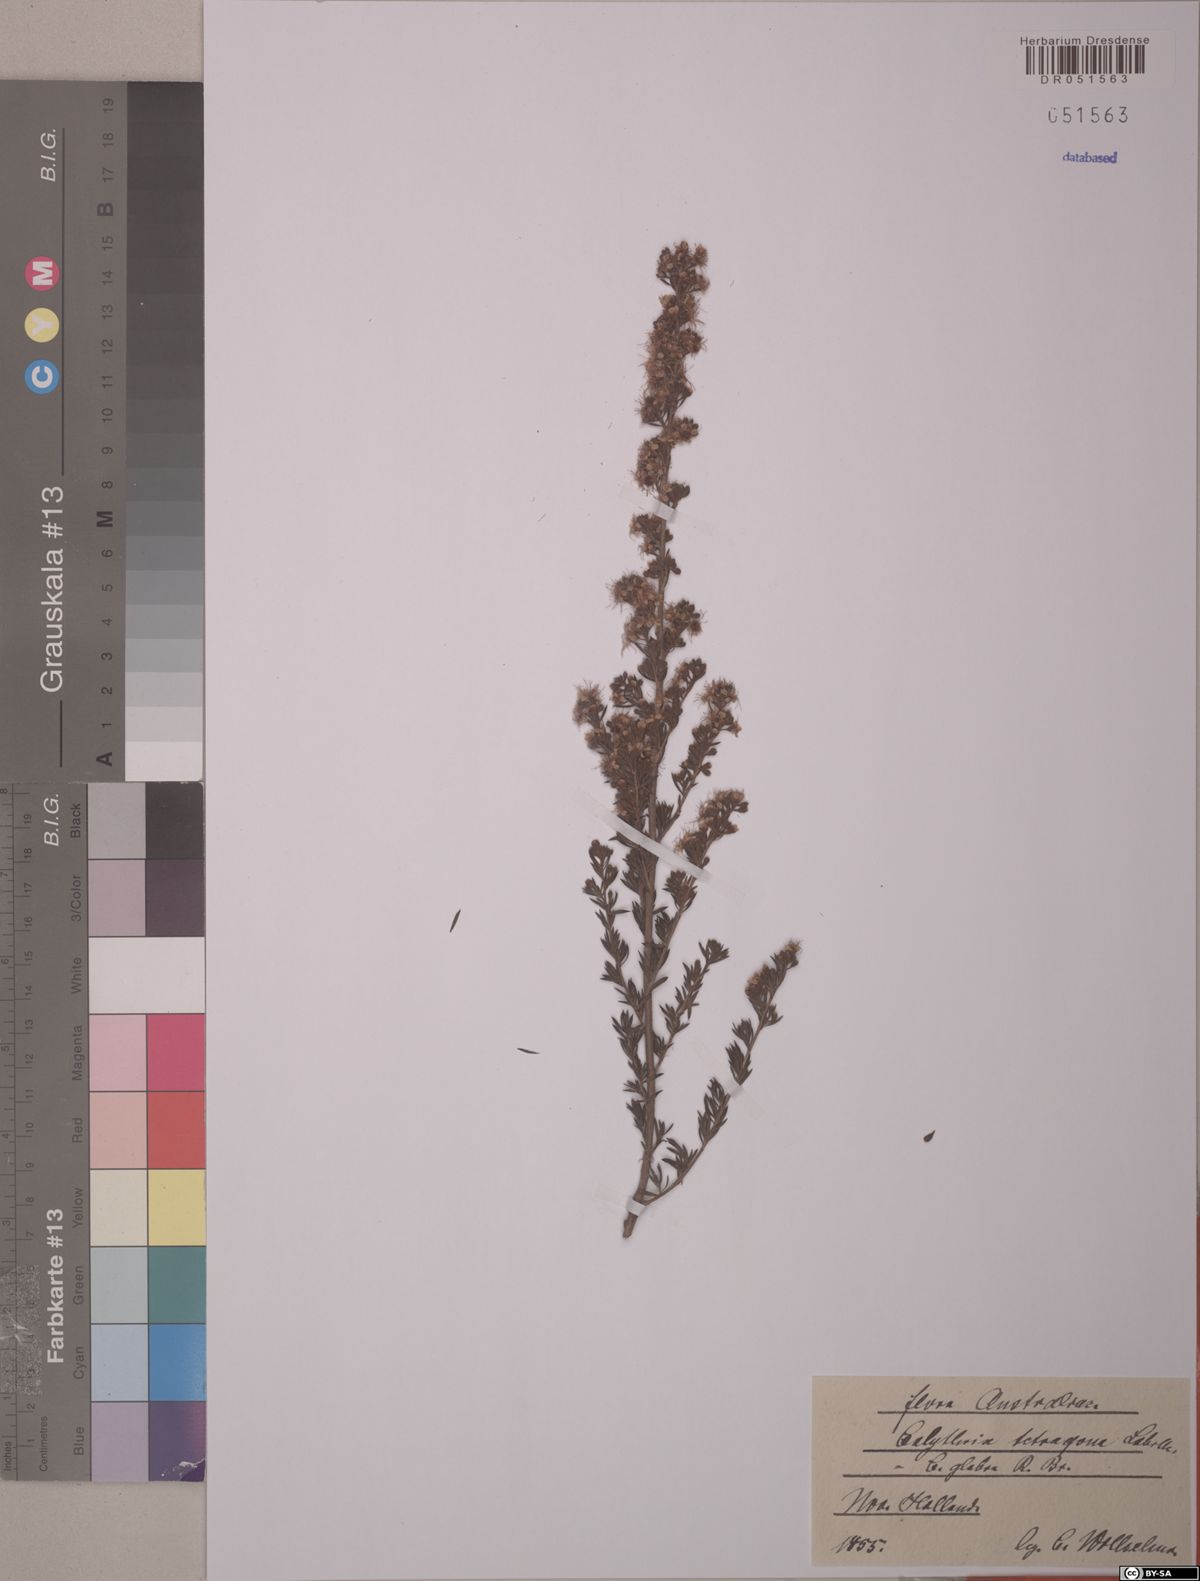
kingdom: Plantae
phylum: Tracheophyta
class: Magnoliopsida
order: Myrtales
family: Myrtaceae
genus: Calytrix
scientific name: Calytrix tetragona
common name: Common fringe myrtle
